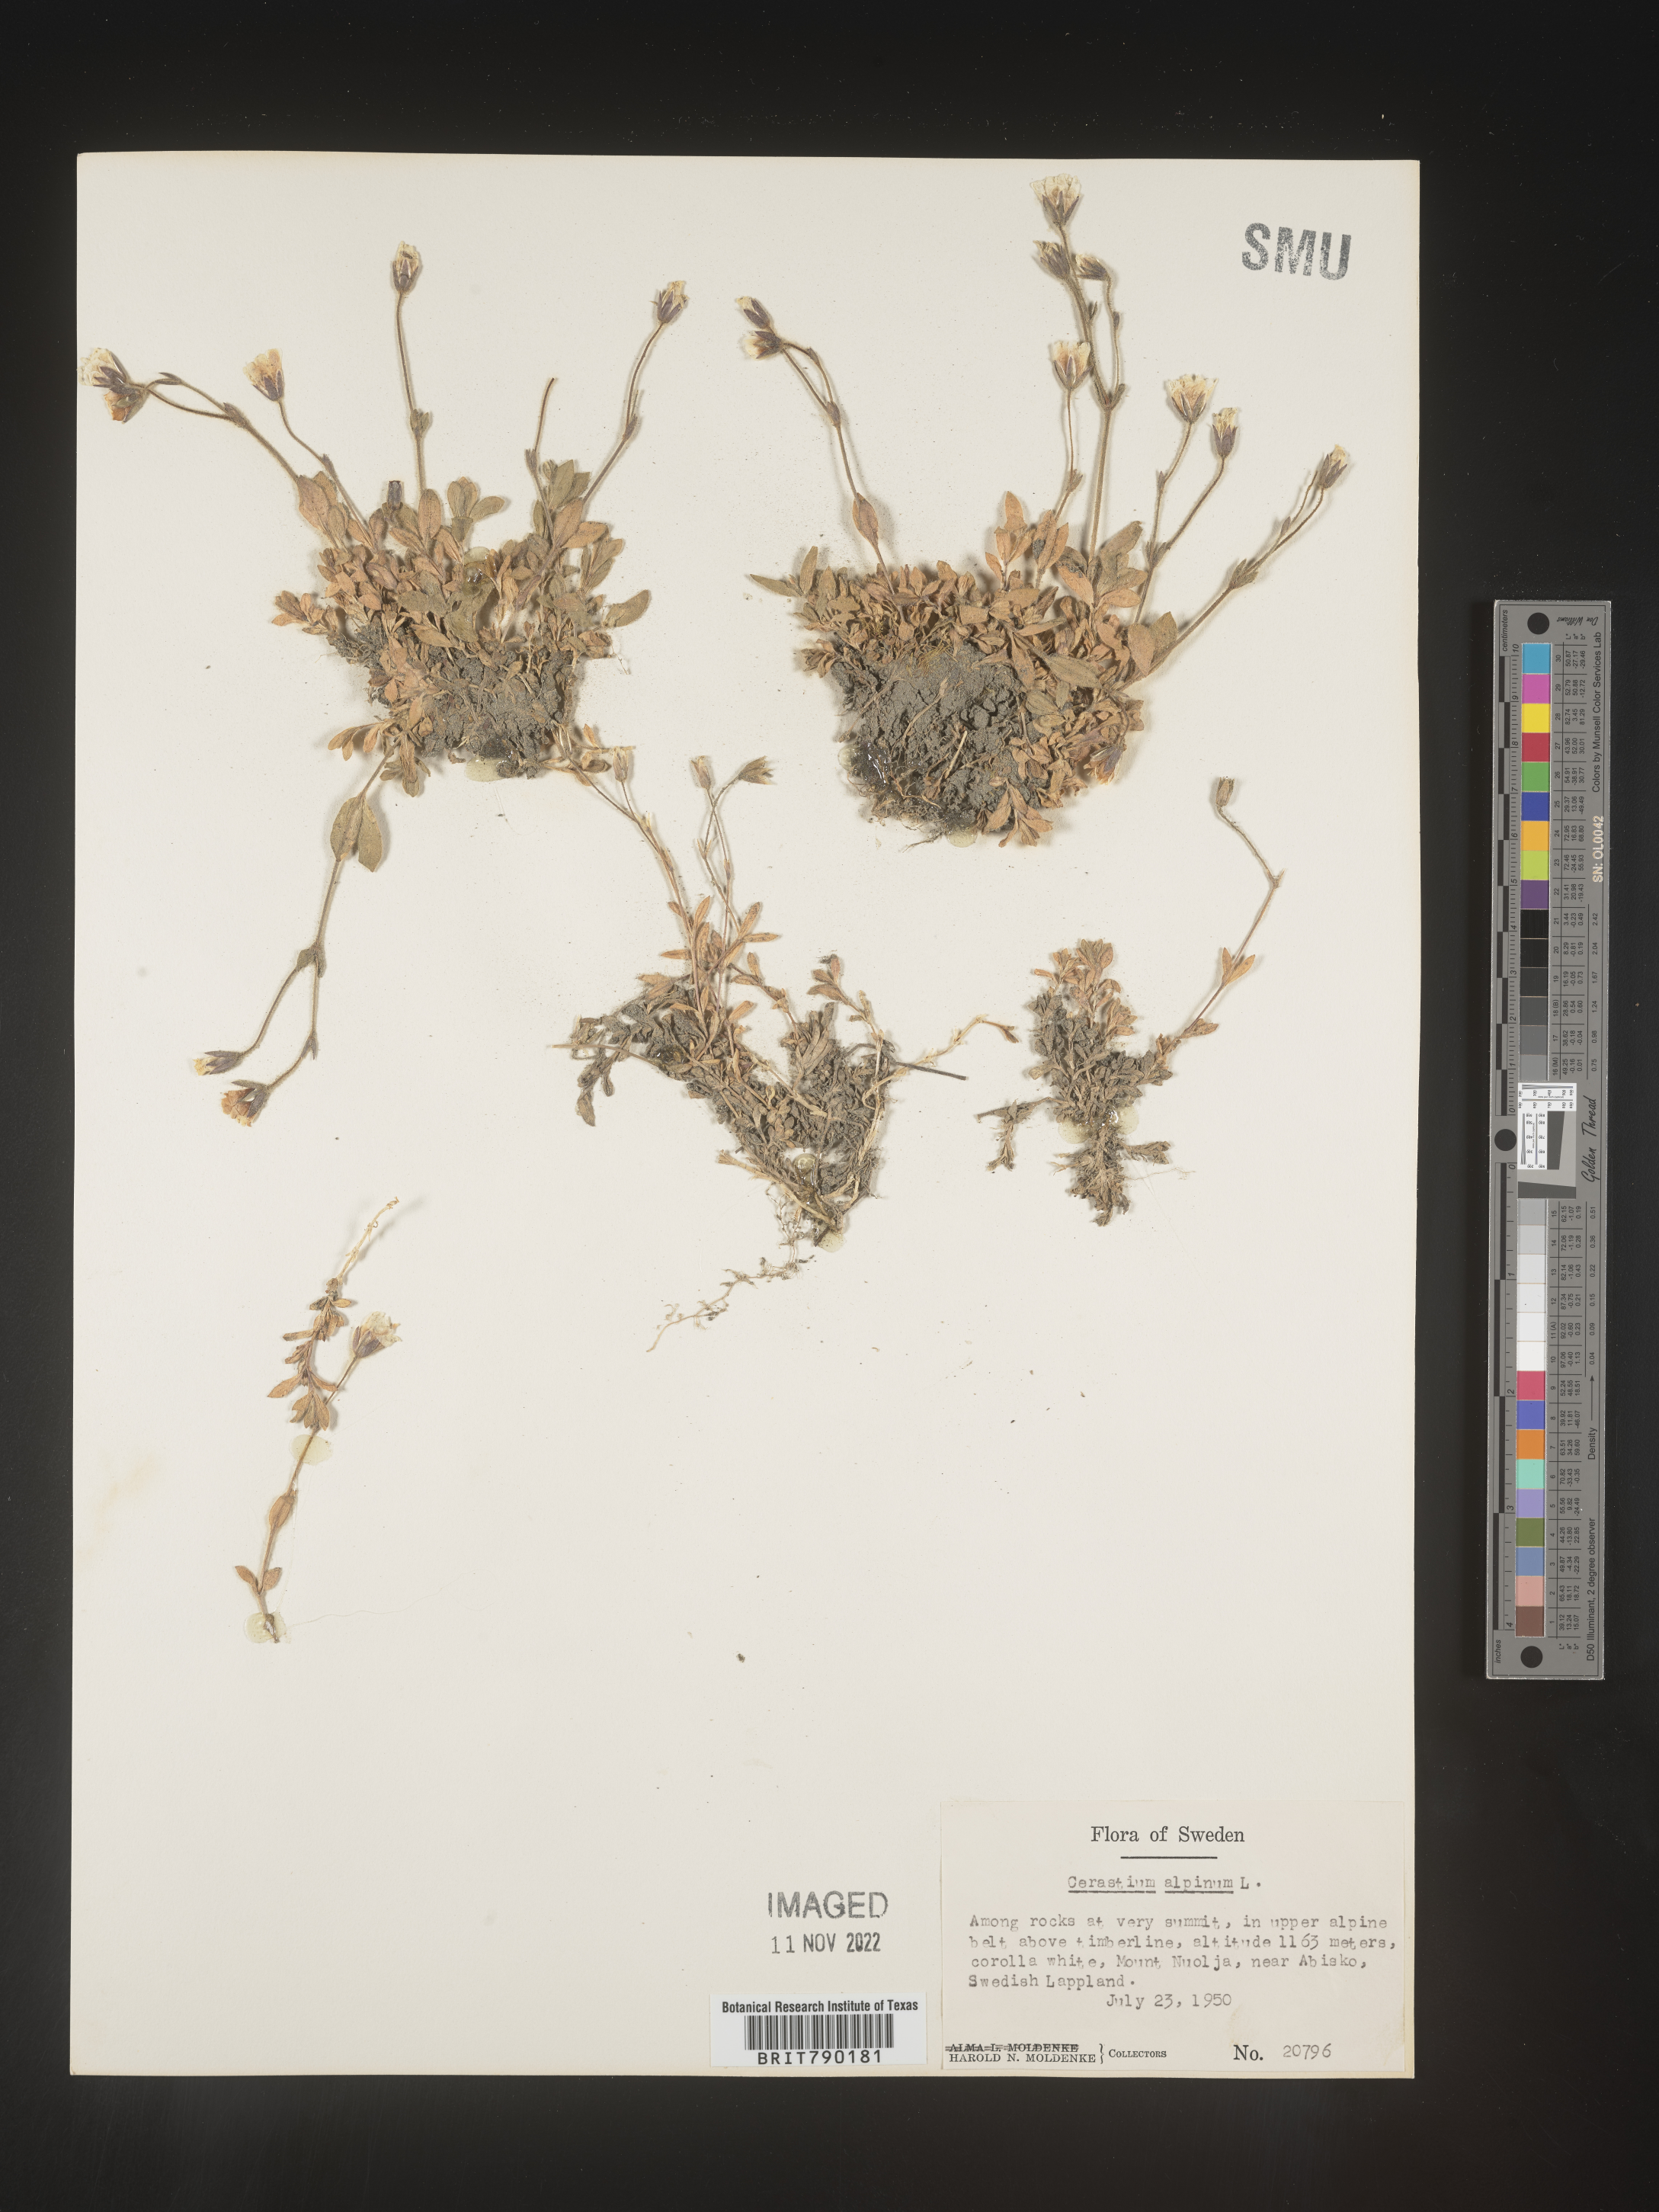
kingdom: Plantae
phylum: Tracheophyta
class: Magnoliopsida
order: Caryophyllales
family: Caryophyllaceae
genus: Cerastium
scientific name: Cerastium
